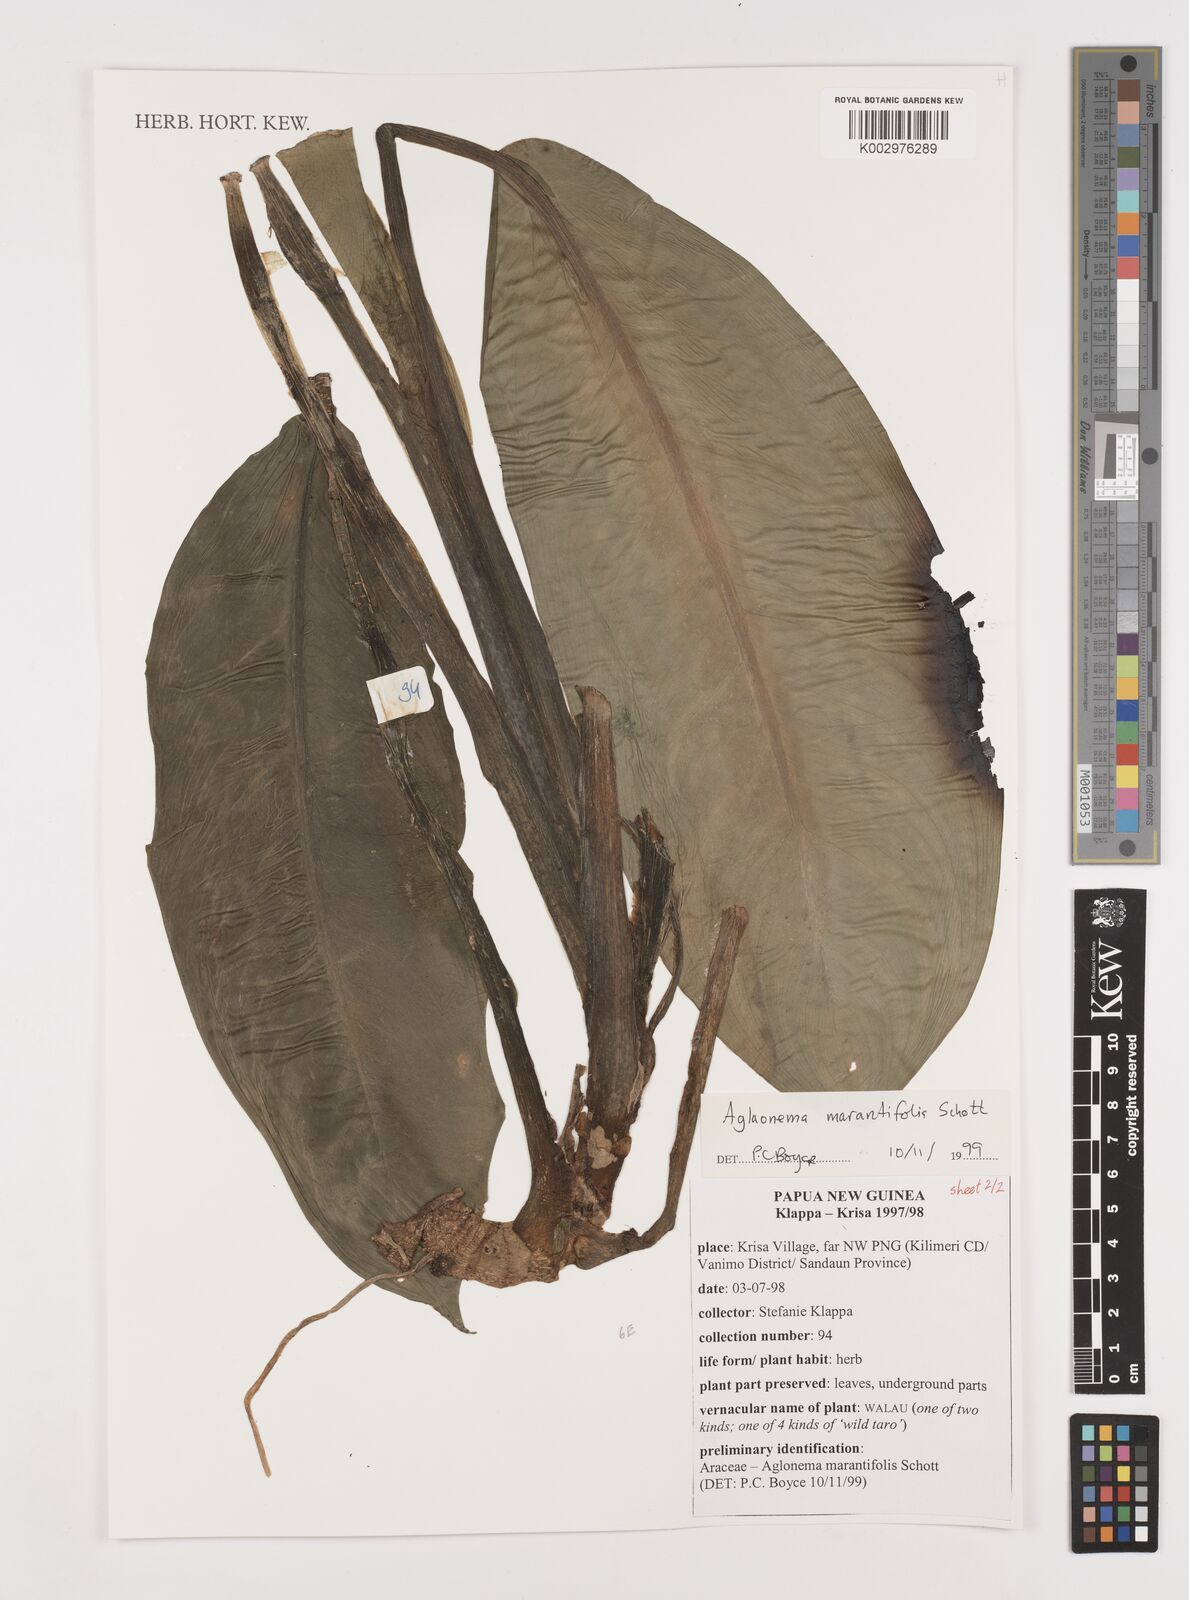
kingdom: Plantae
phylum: Tracheophyta
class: Liliopsida
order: Alismatales
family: Araceae
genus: Aglaonema
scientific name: Aglaonema marantifolium
